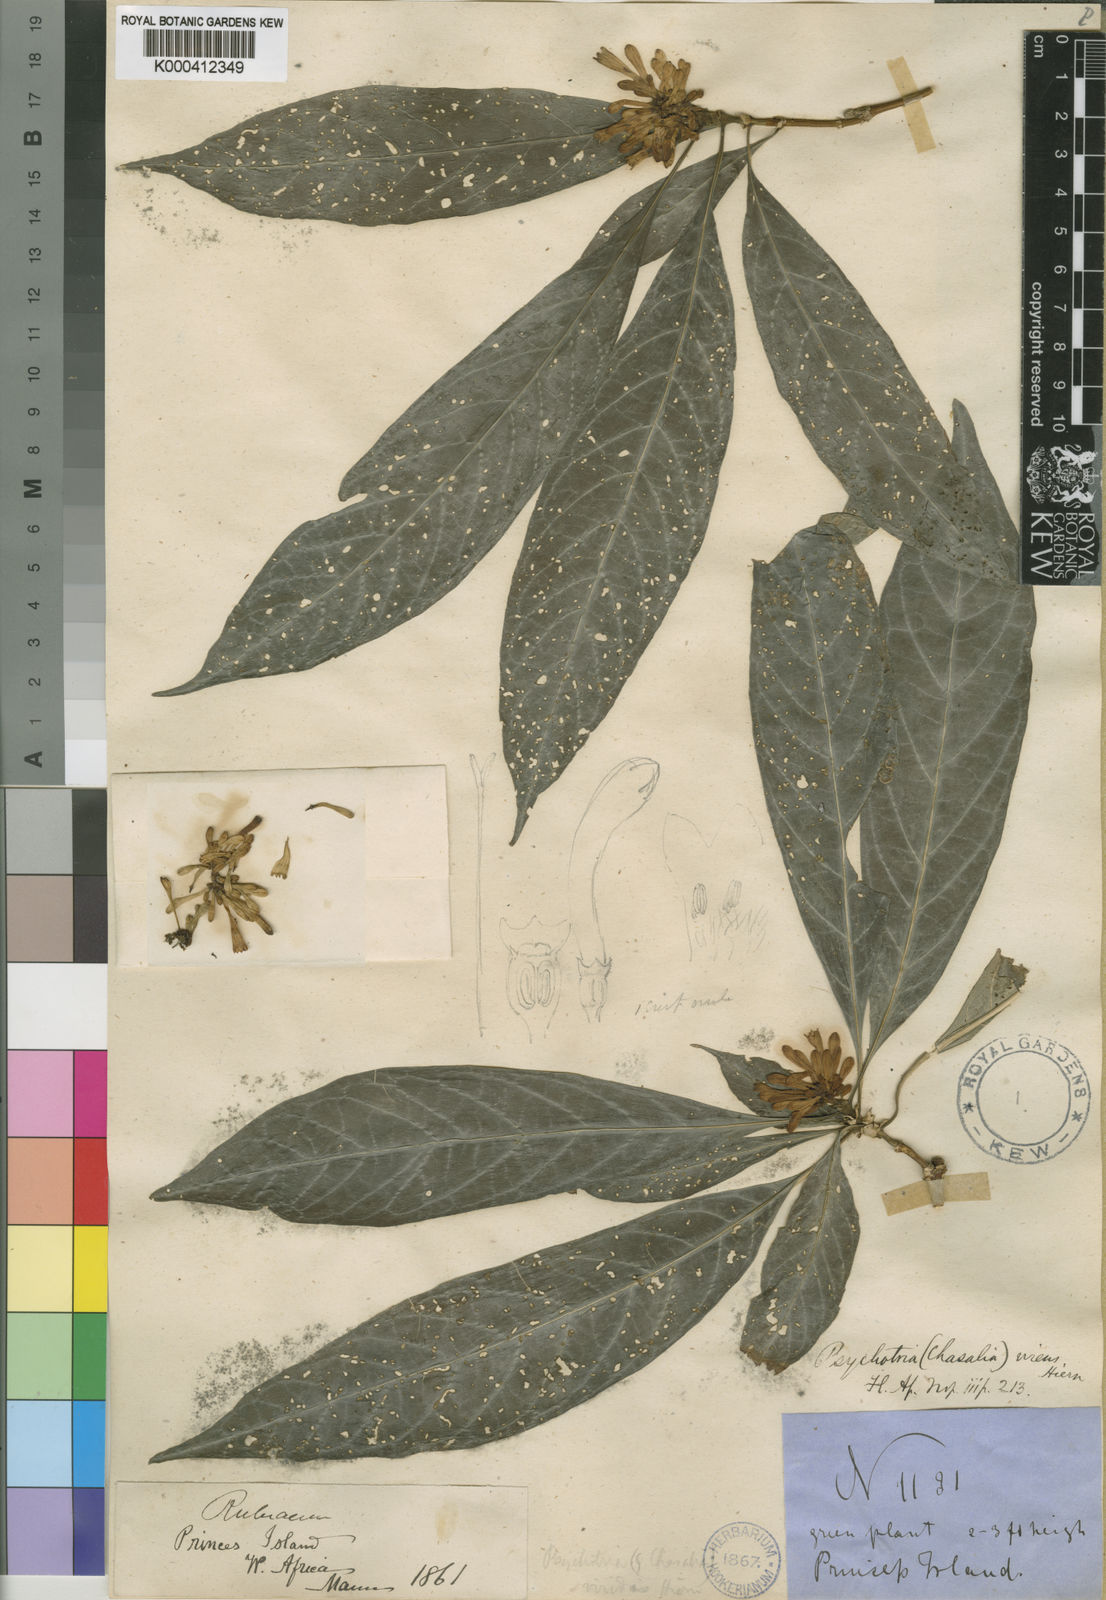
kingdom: Plantae
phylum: Tracheophyta
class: Magnoliopsida
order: Gentianales
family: Rubiaceae
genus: Chassalia
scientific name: Chassalia hiernii
